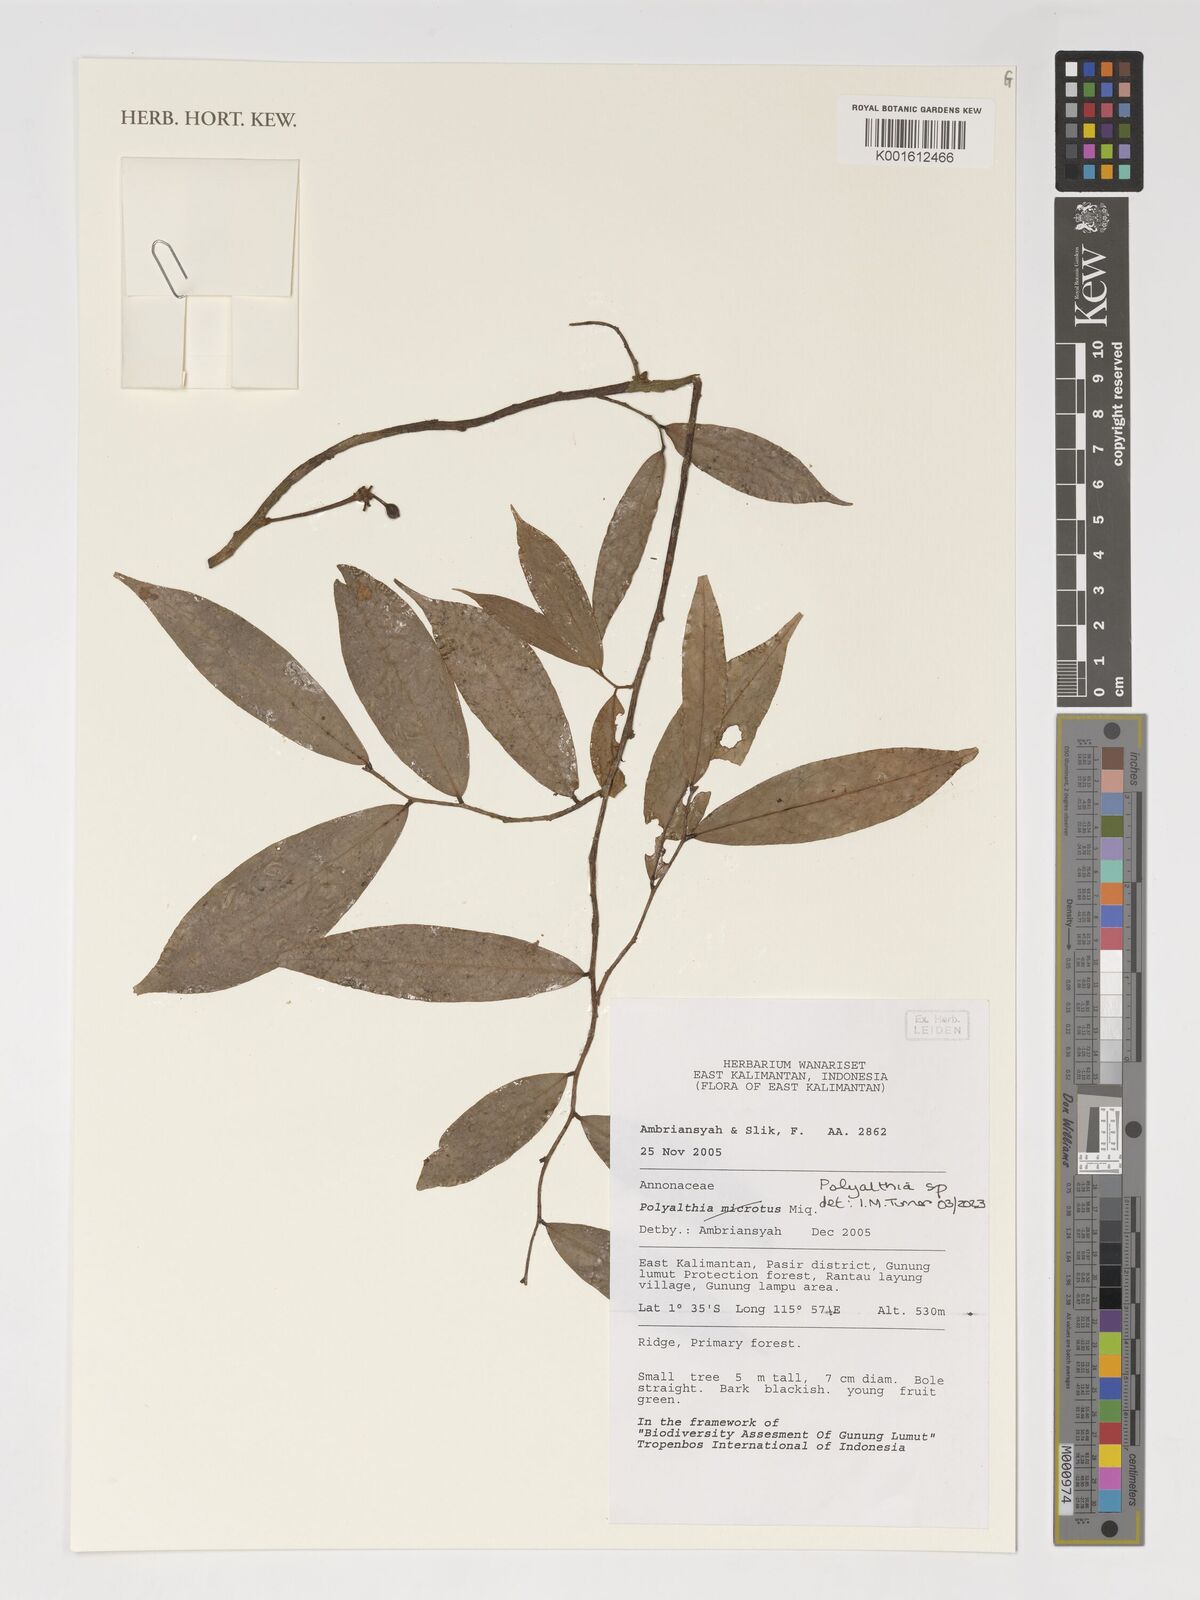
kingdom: Plantae
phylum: Tracheophyta
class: Magnoliopsida
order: Magnoliales
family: Annonaceae
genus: Polyalthia
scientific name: Polyalthia
